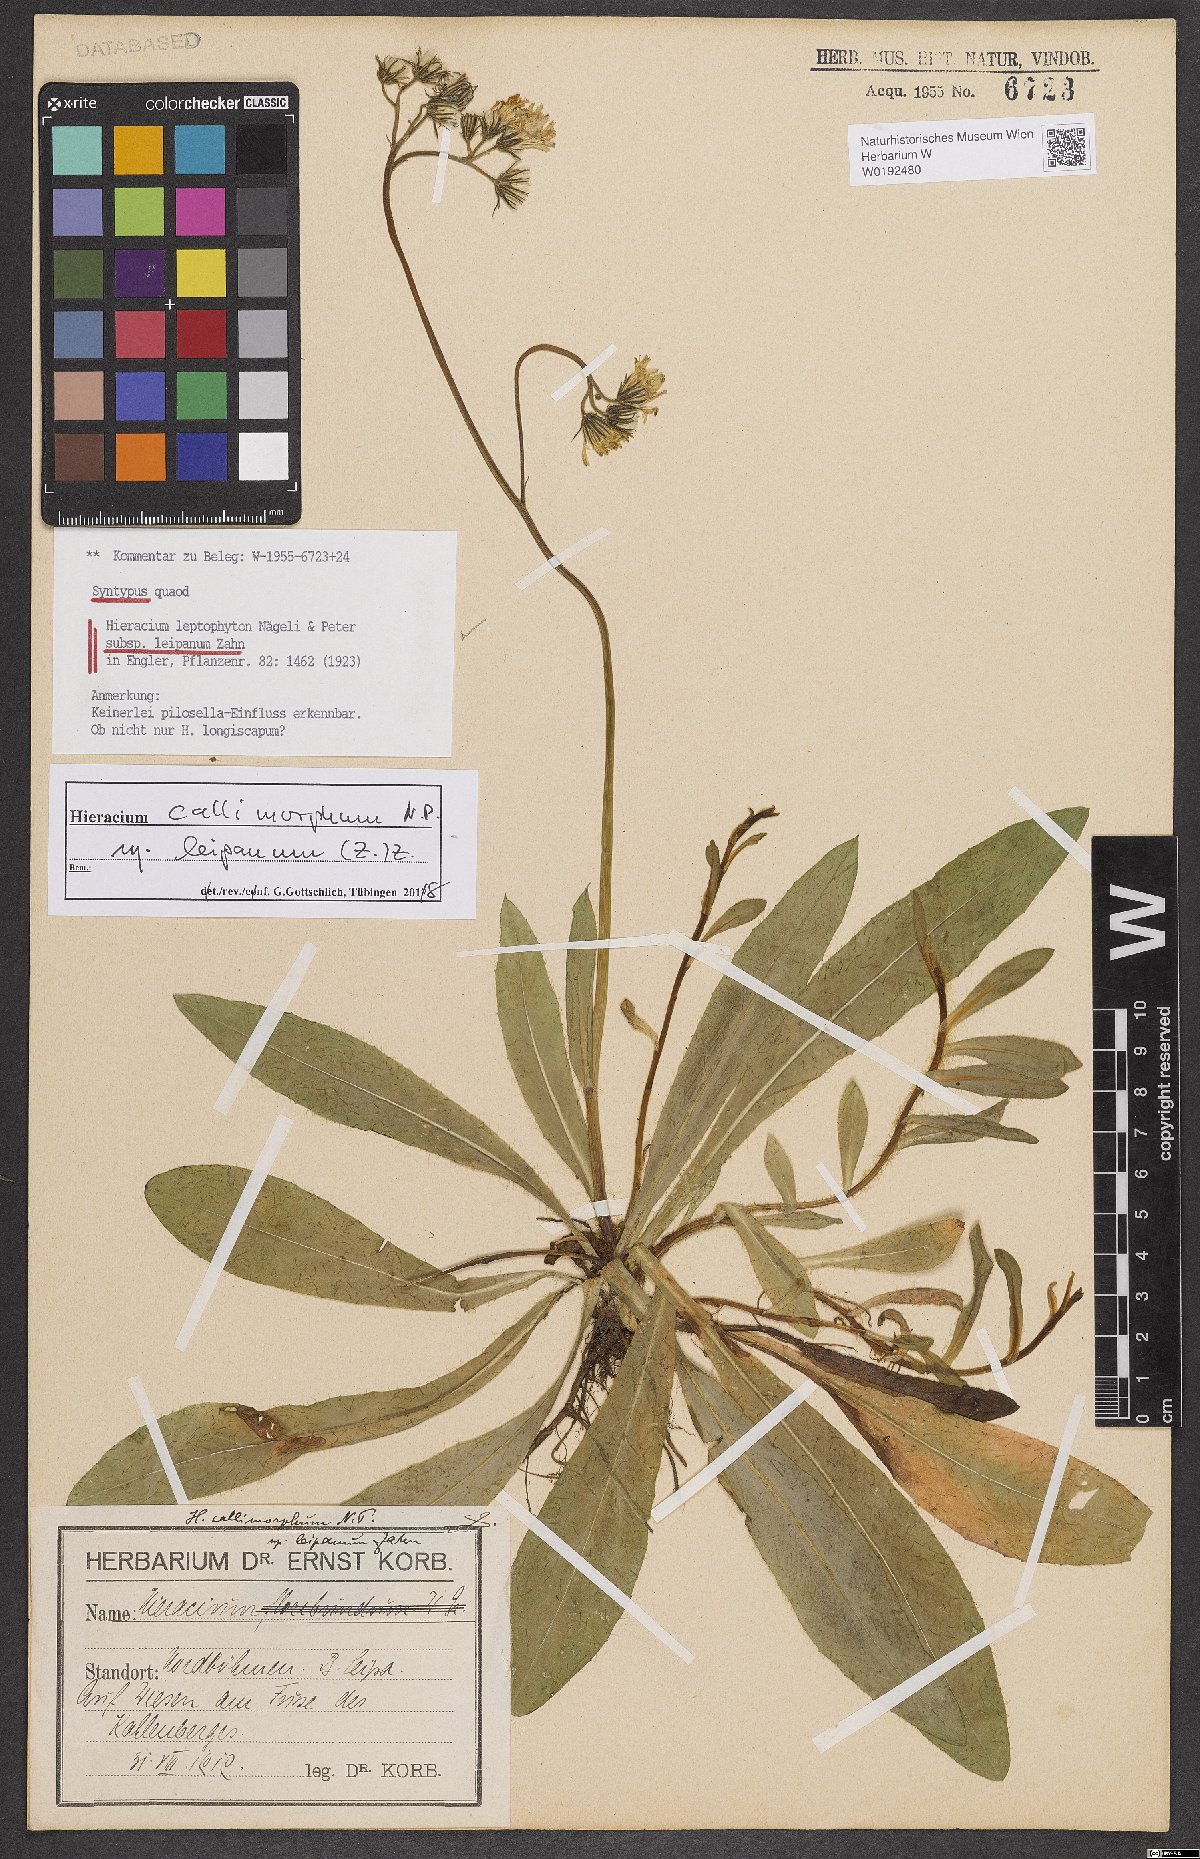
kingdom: Plantae
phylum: Tracheophyta
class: Magnoliopsida
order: Asterales
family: Asteraceae
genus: Pilosella
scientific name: Pilosella leptophyton
